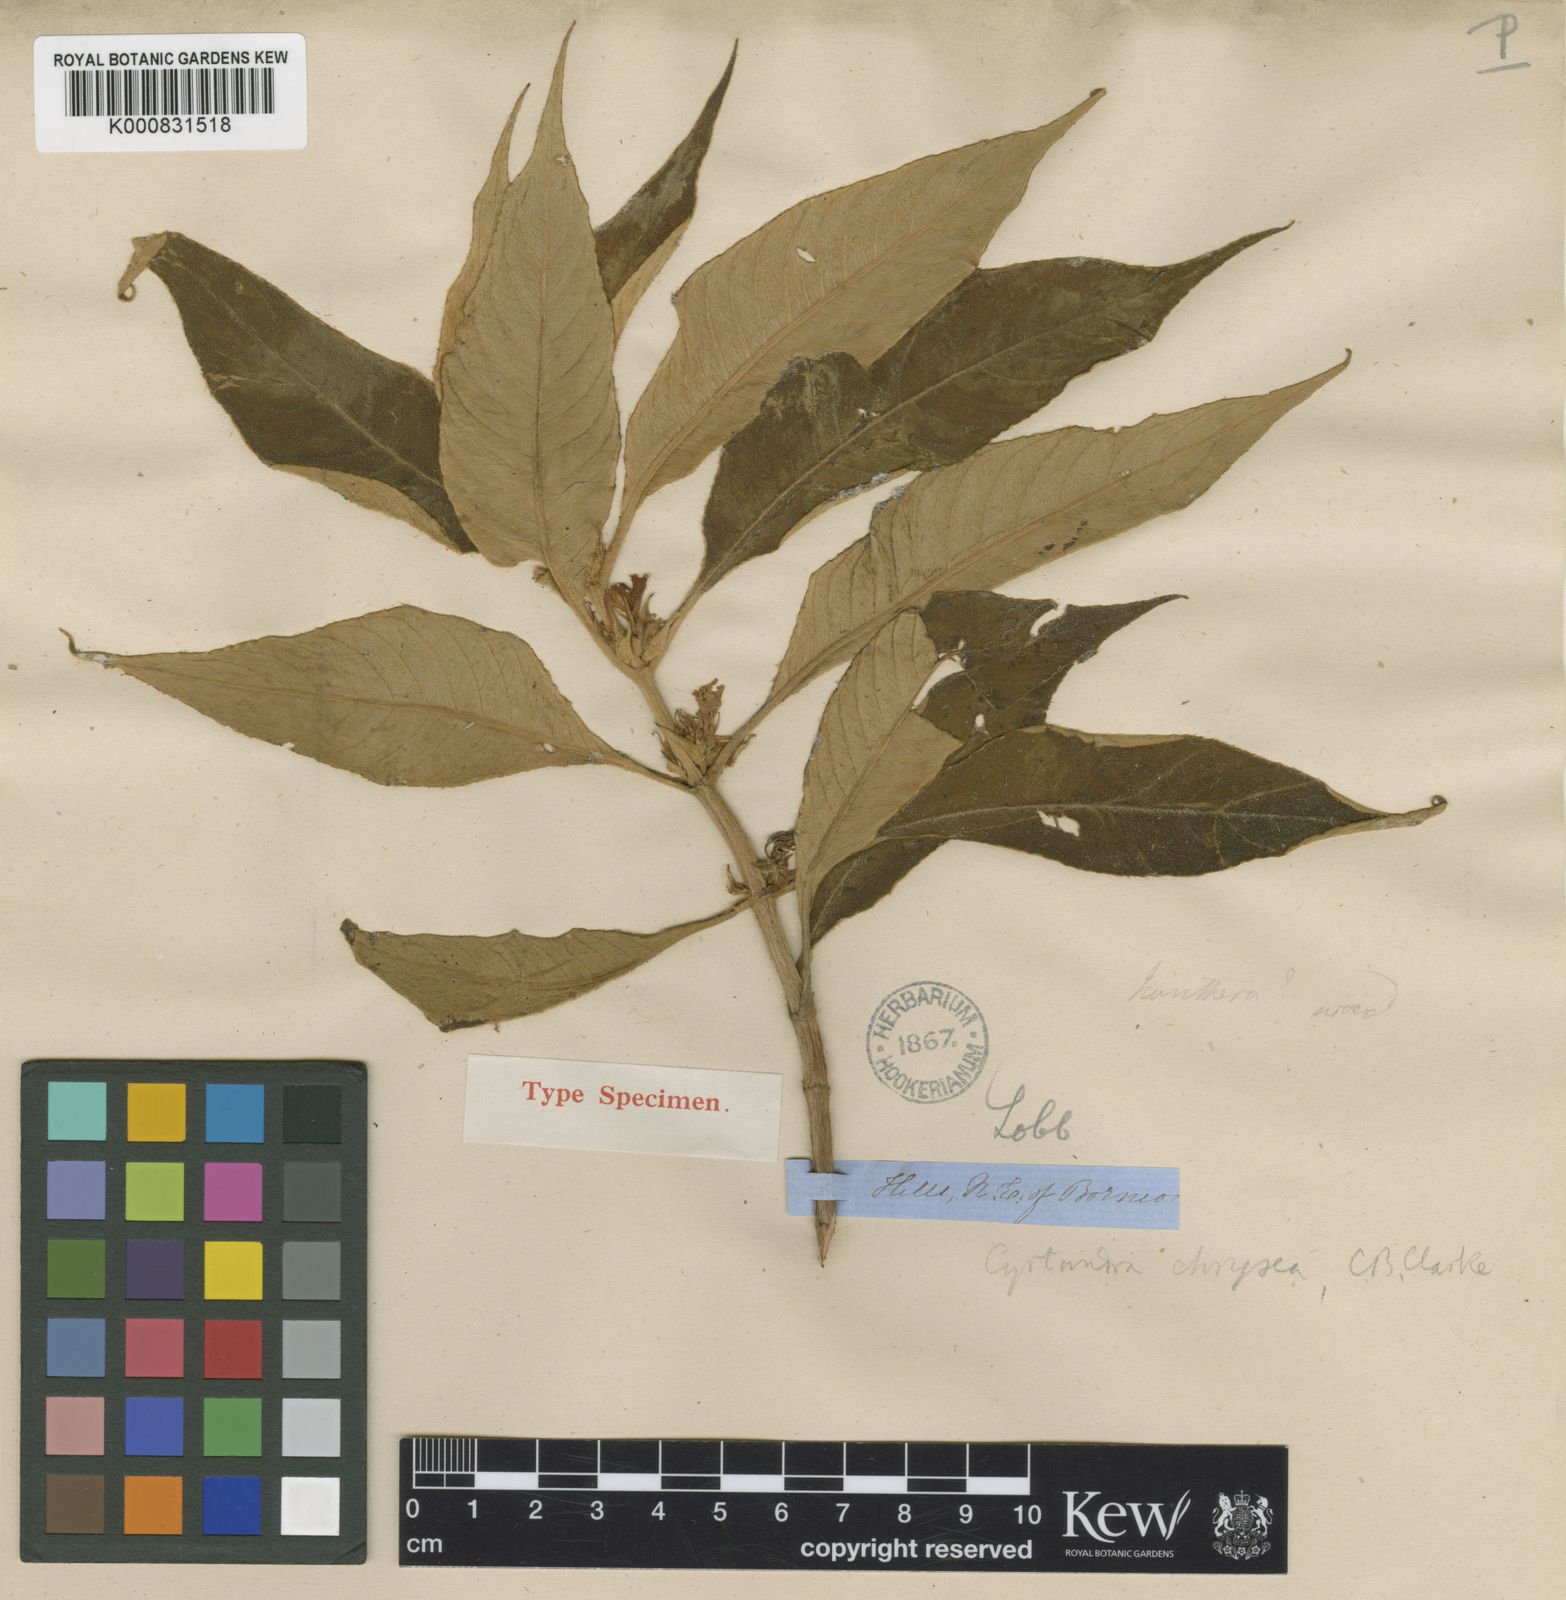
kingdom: Plantae
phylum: Tracheophyta
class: Magnoliopsida
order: Lamiales
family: Gesneriaceae
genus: Cyrtandra
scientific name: Cyrtandra chrysea
